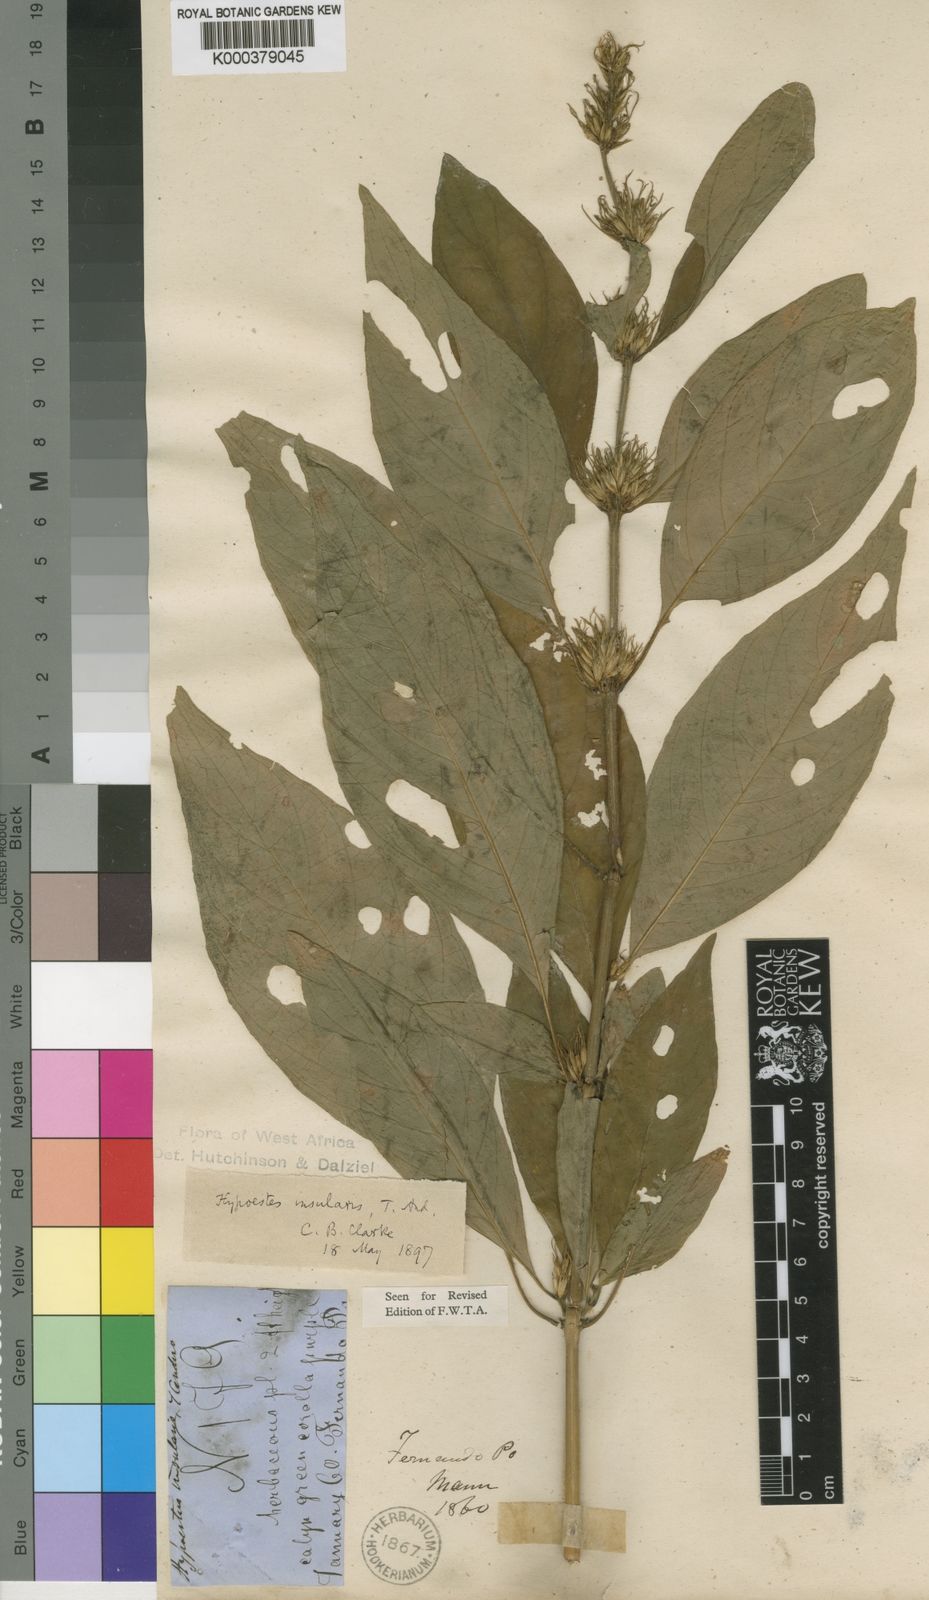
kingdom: Plantae
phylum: Tracheophyta
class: Magnoliopsida
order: Lamiales
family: Acanthaceae
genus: Hypoestes
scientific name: Hypoestes aristata
